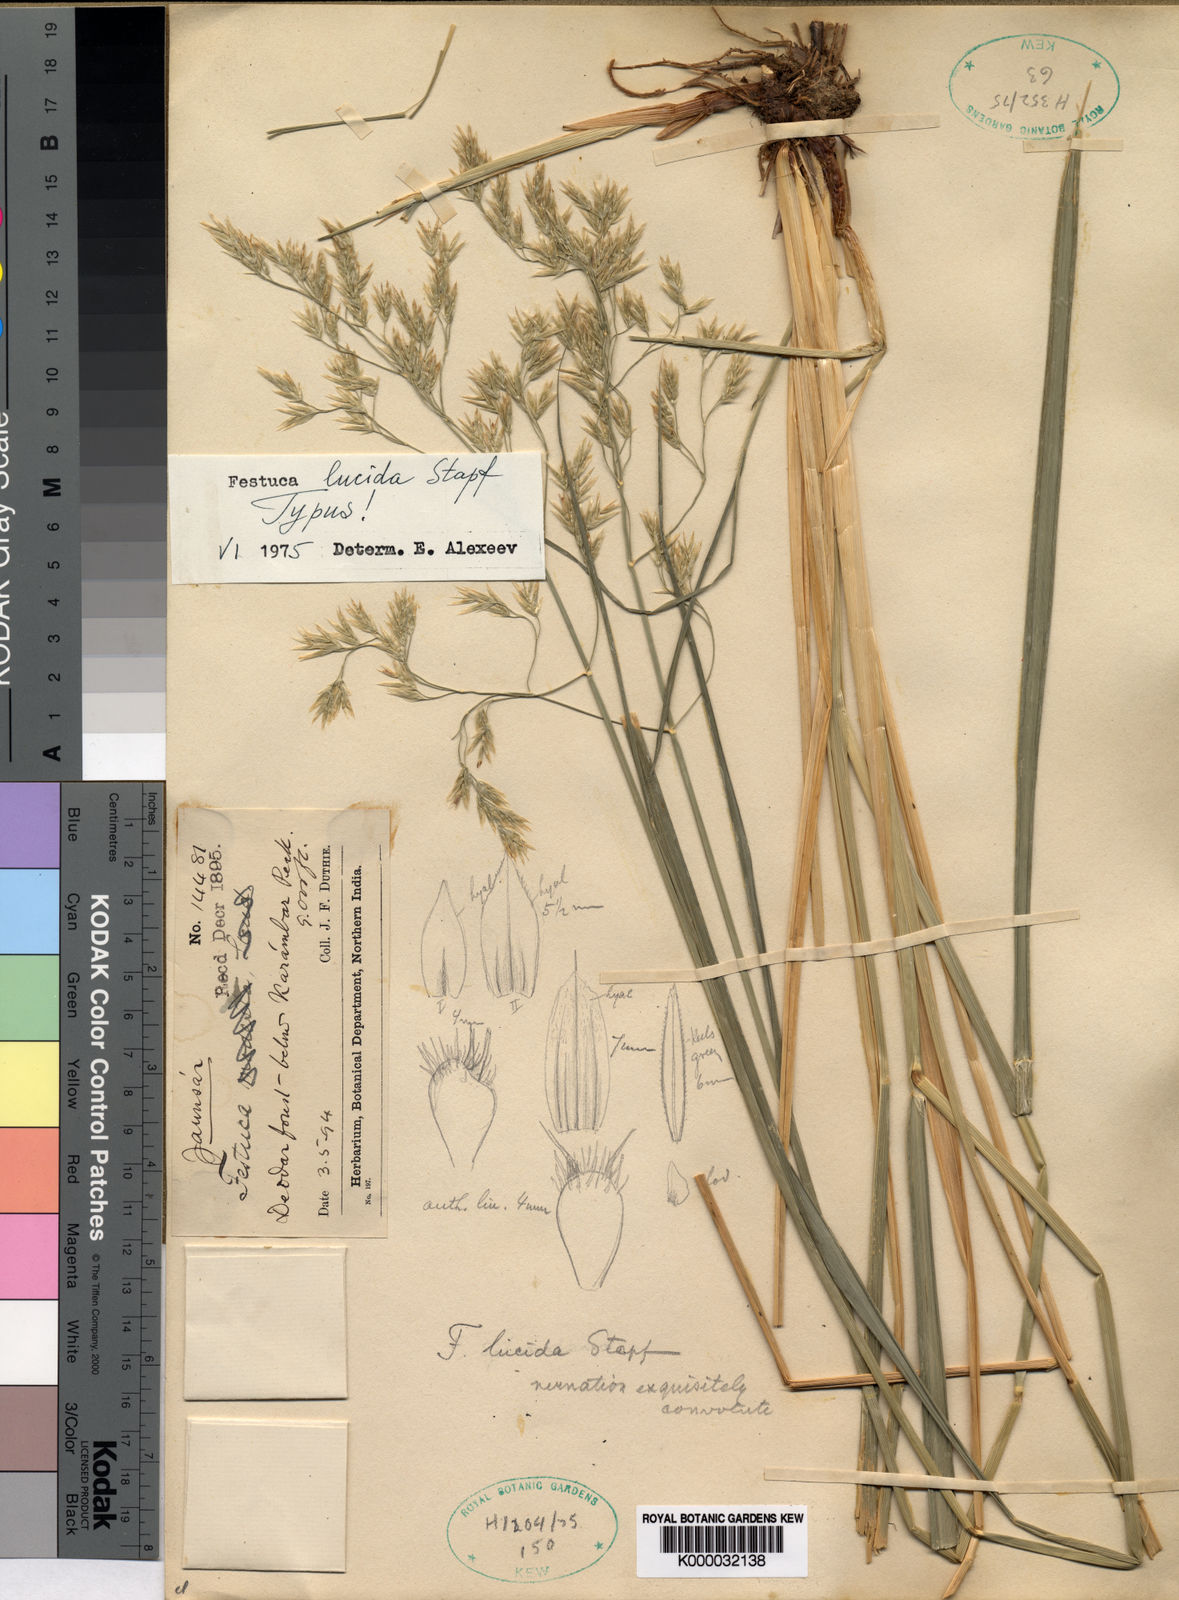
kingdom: Plantae
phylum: Tracheophyta
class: Liliopsida
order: Poales
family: Poaceae
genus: Festuca
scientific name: Festuca lucida
